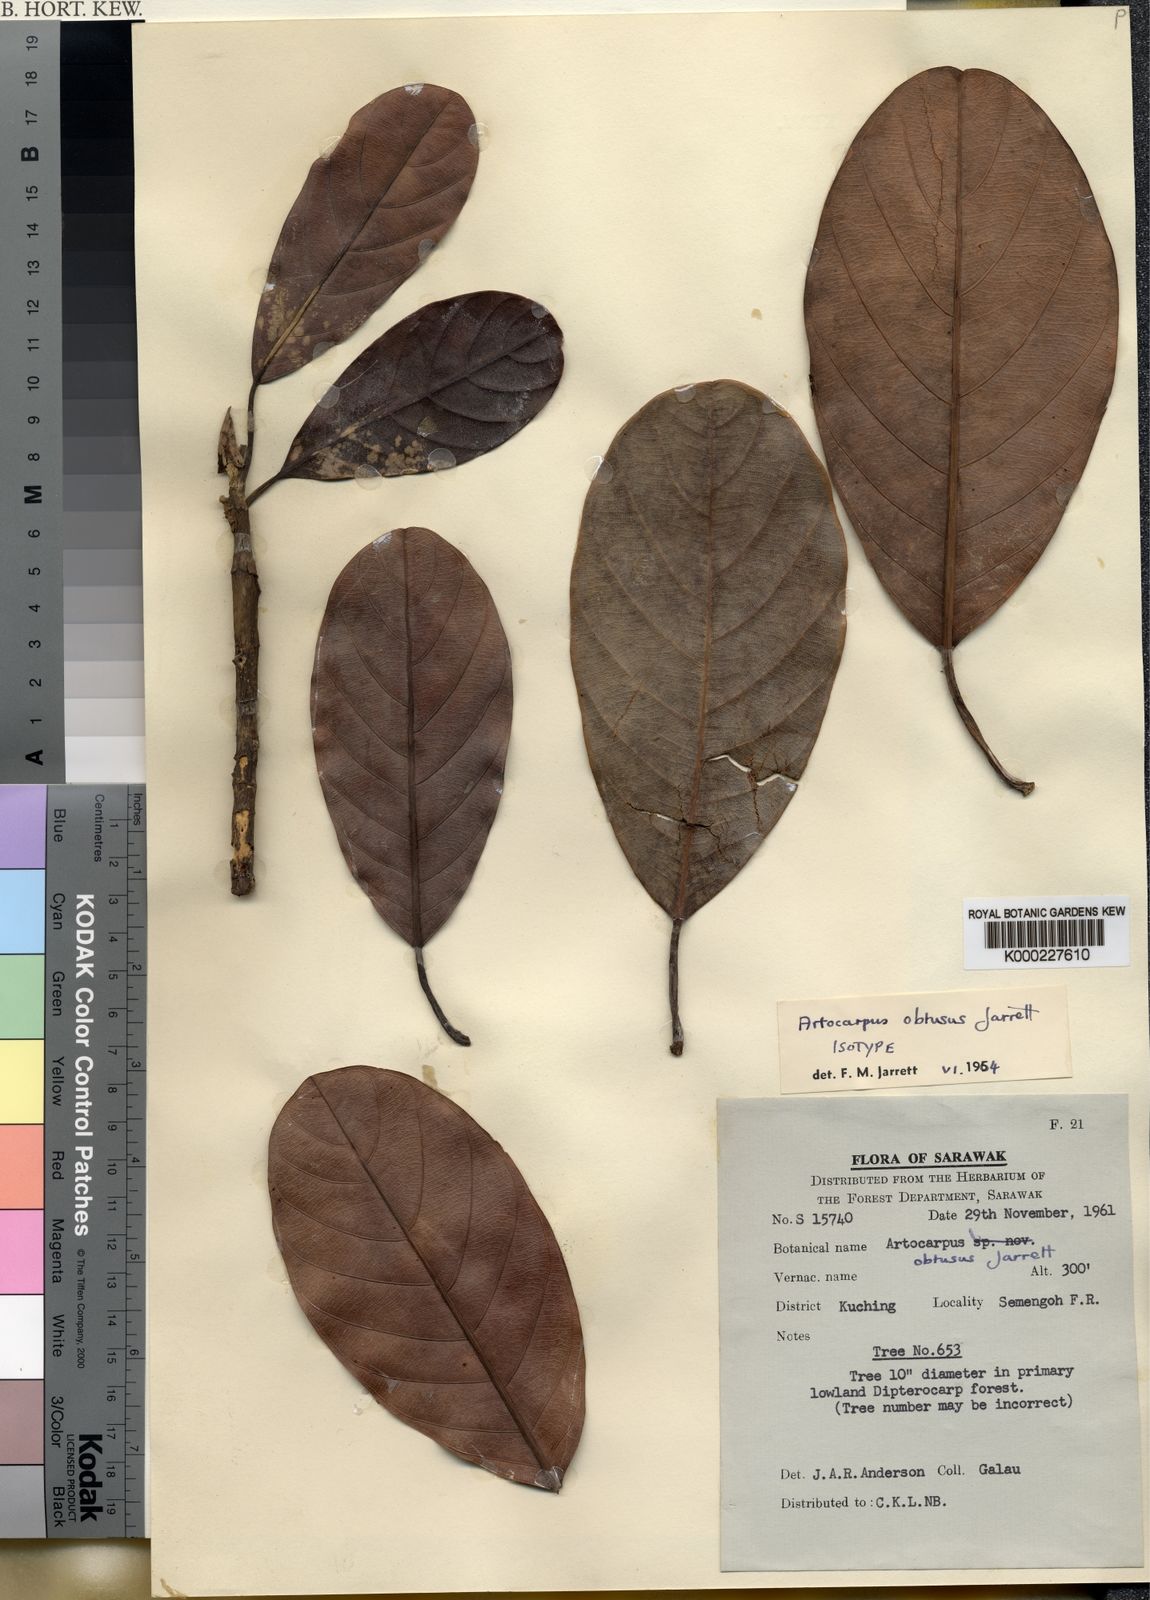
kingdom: Plantae
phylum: Tracheophyta
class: Magnoliopsida
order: Rosales
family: Moraceae
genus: Artocarpus
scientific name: Artocarpus obtusus
